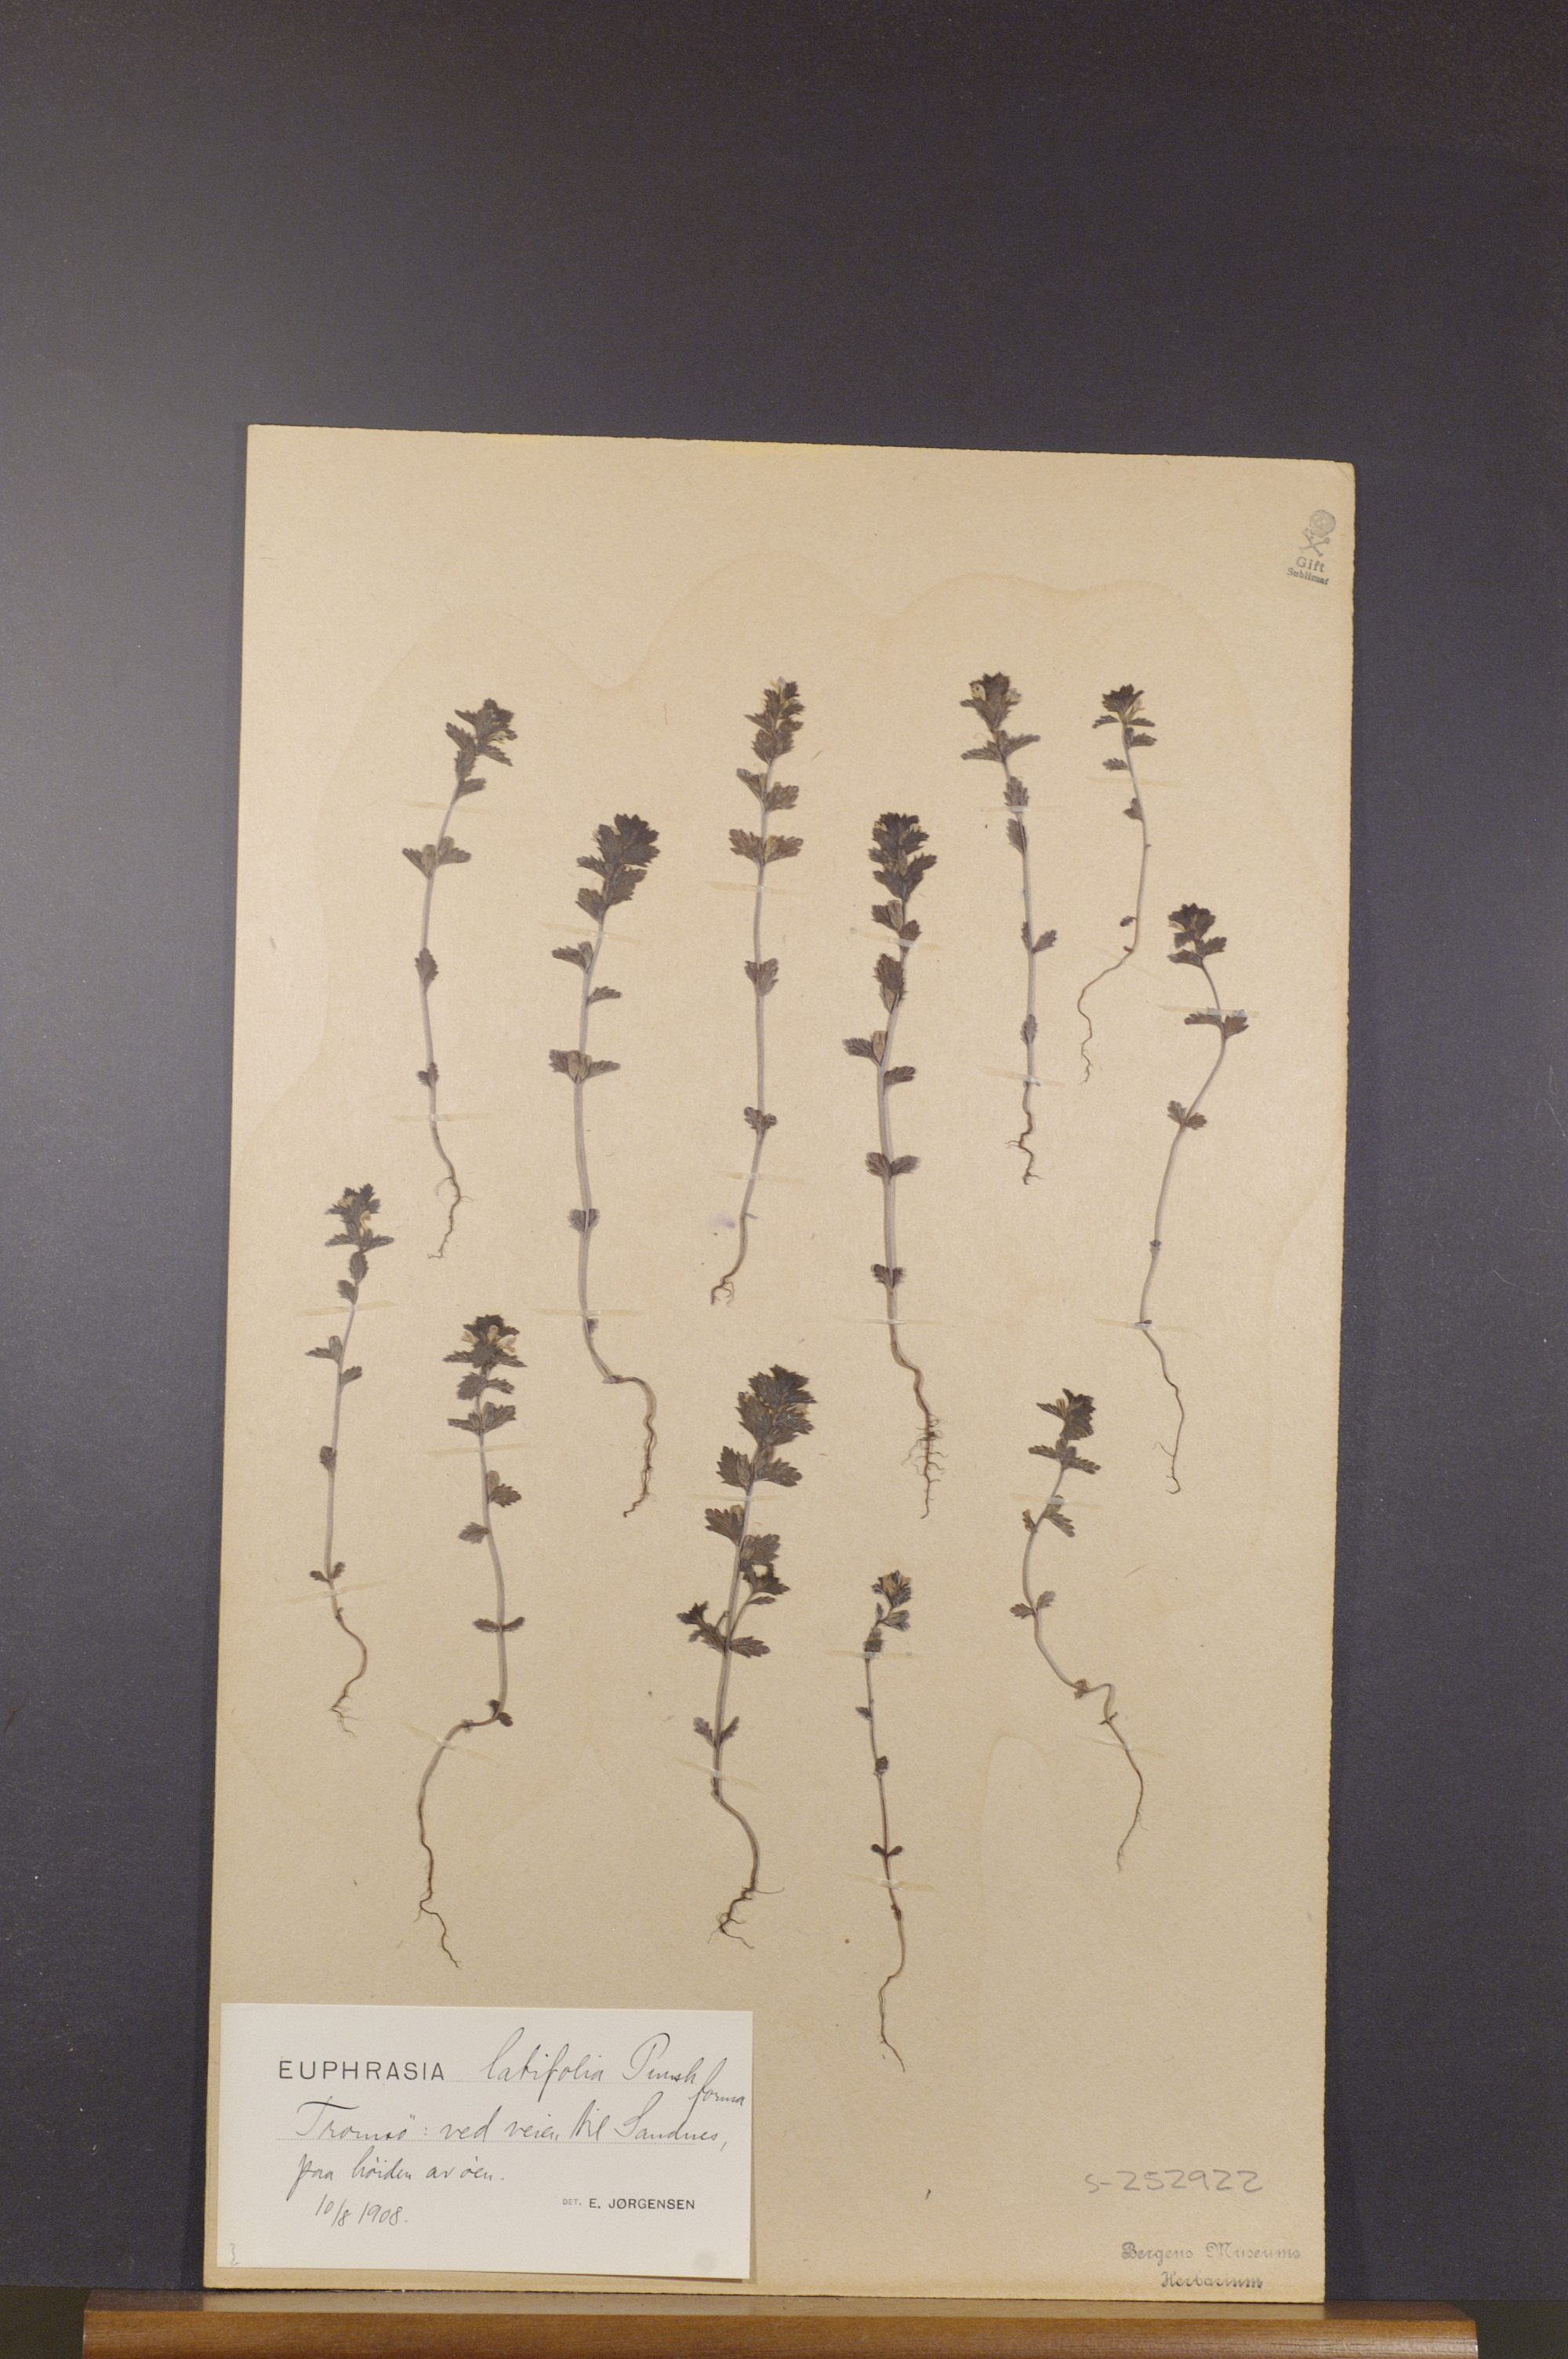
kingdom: Plantae
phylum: Tracheophyta
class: Magnoliopsida
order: Lamiales
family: Orobanchaceae
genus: Euphrasia
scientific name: Euphrasia wettsteinii
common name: Wettstein's eyebright
